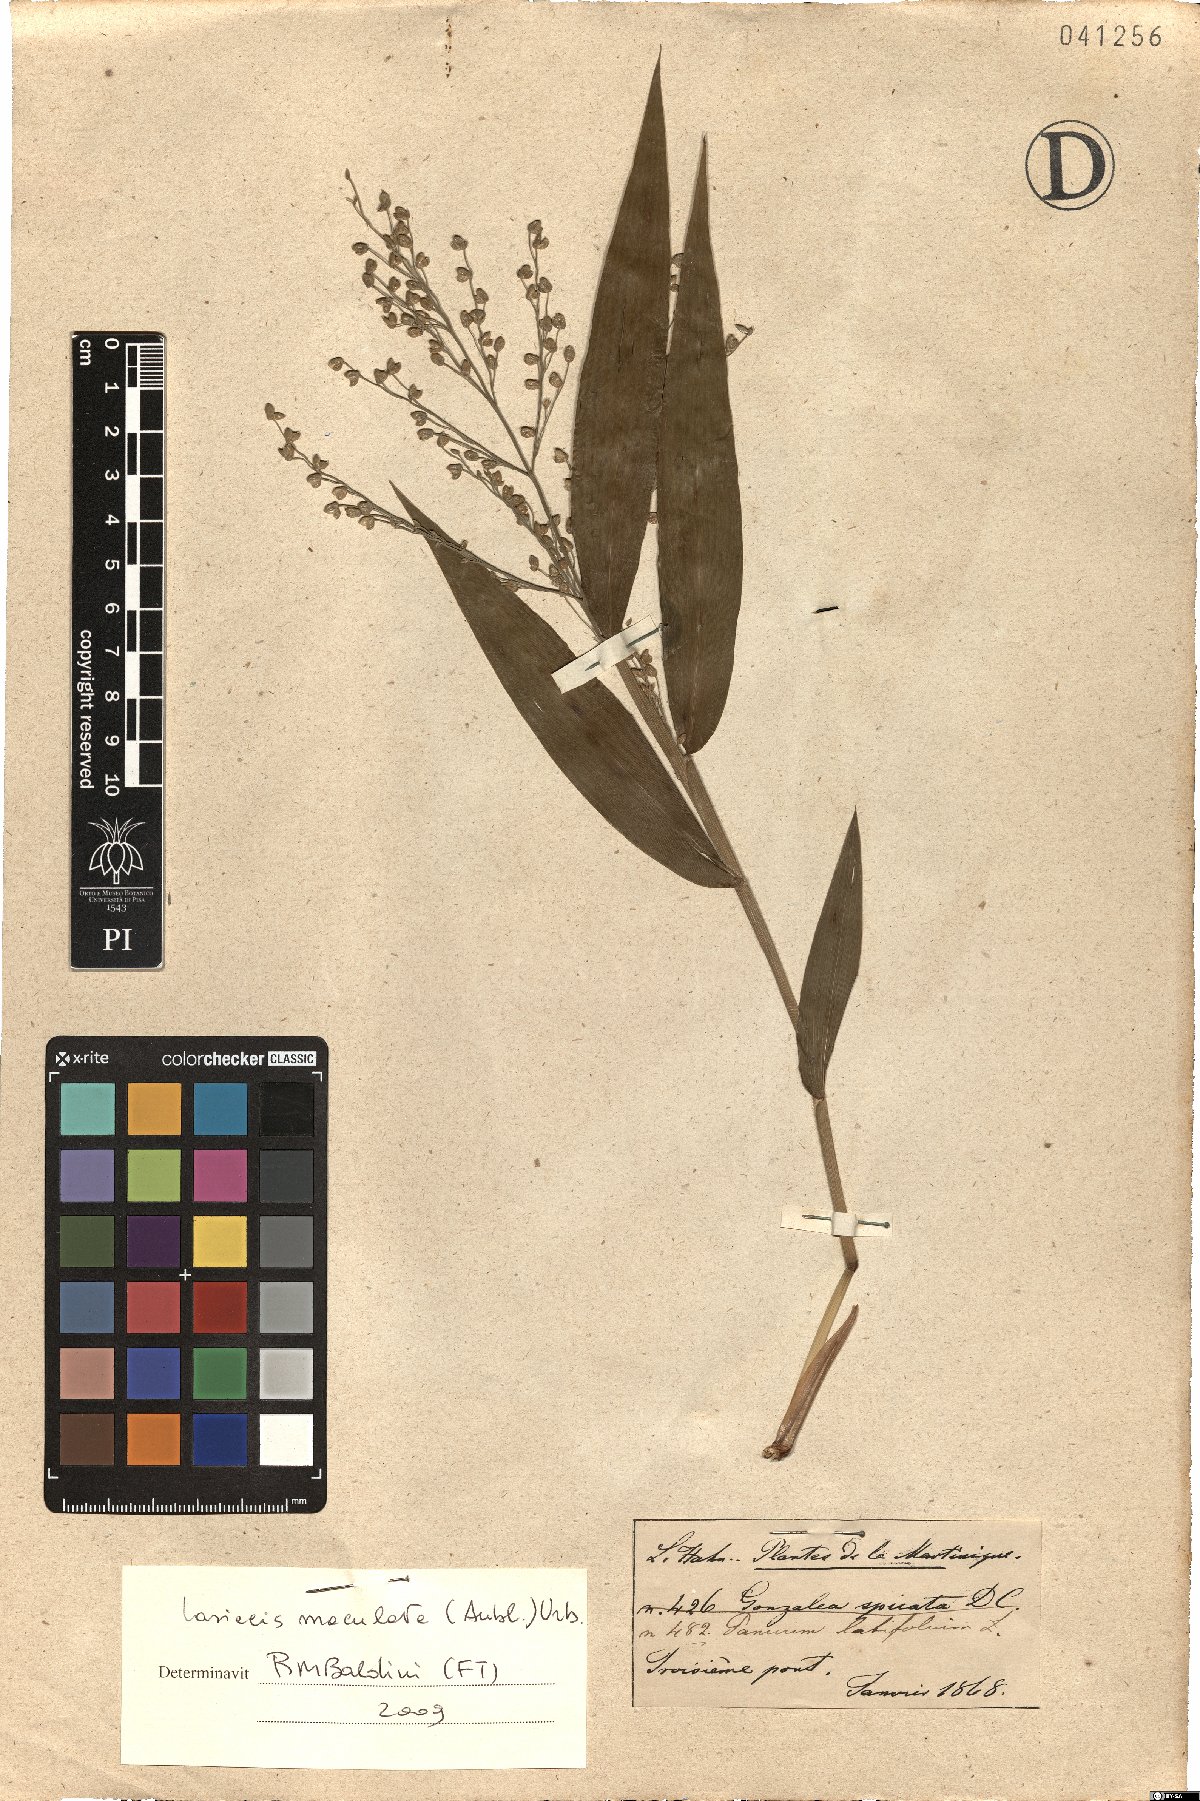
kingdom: Plantae
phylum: Tracheophyta
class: Liliopsida
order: Poales
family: Poaceae
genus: Lasiacis
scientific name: Lasiacis maculata
